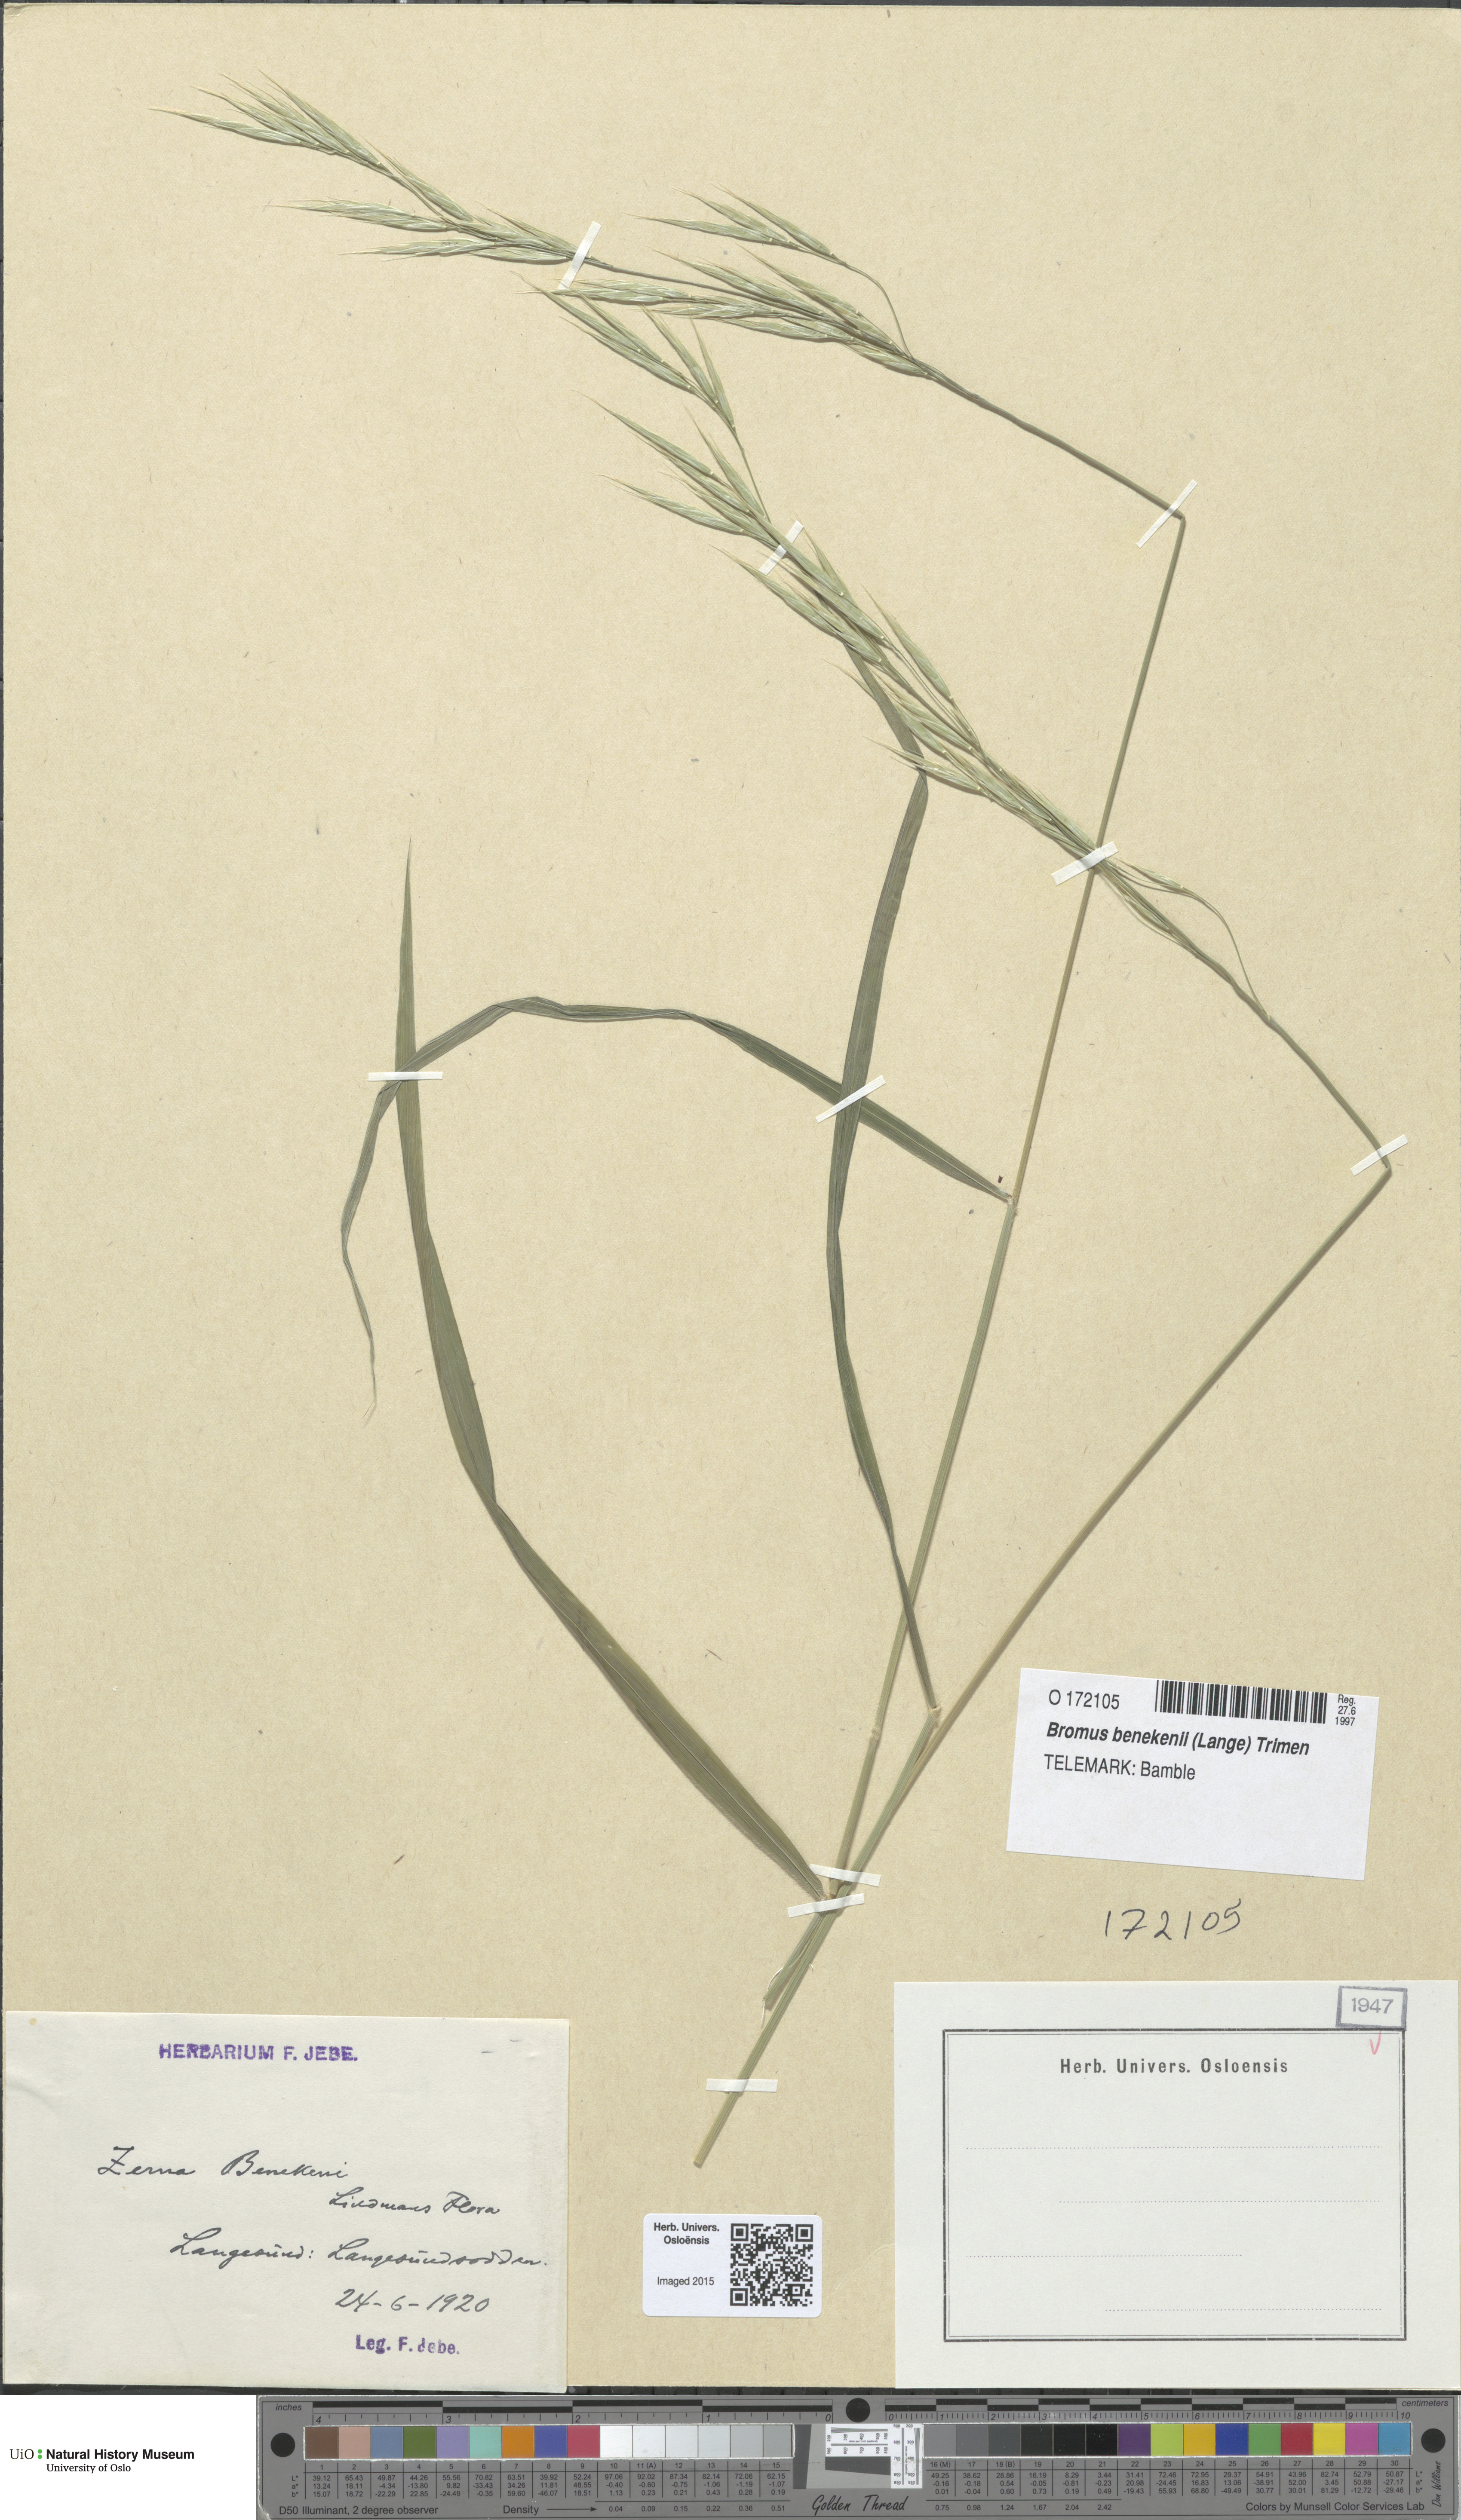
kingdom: Plantae
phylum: Tracheophyta
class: Liliopsida
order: Poales
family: Poaceae
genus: Bromus
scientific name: Bromus benekenii
